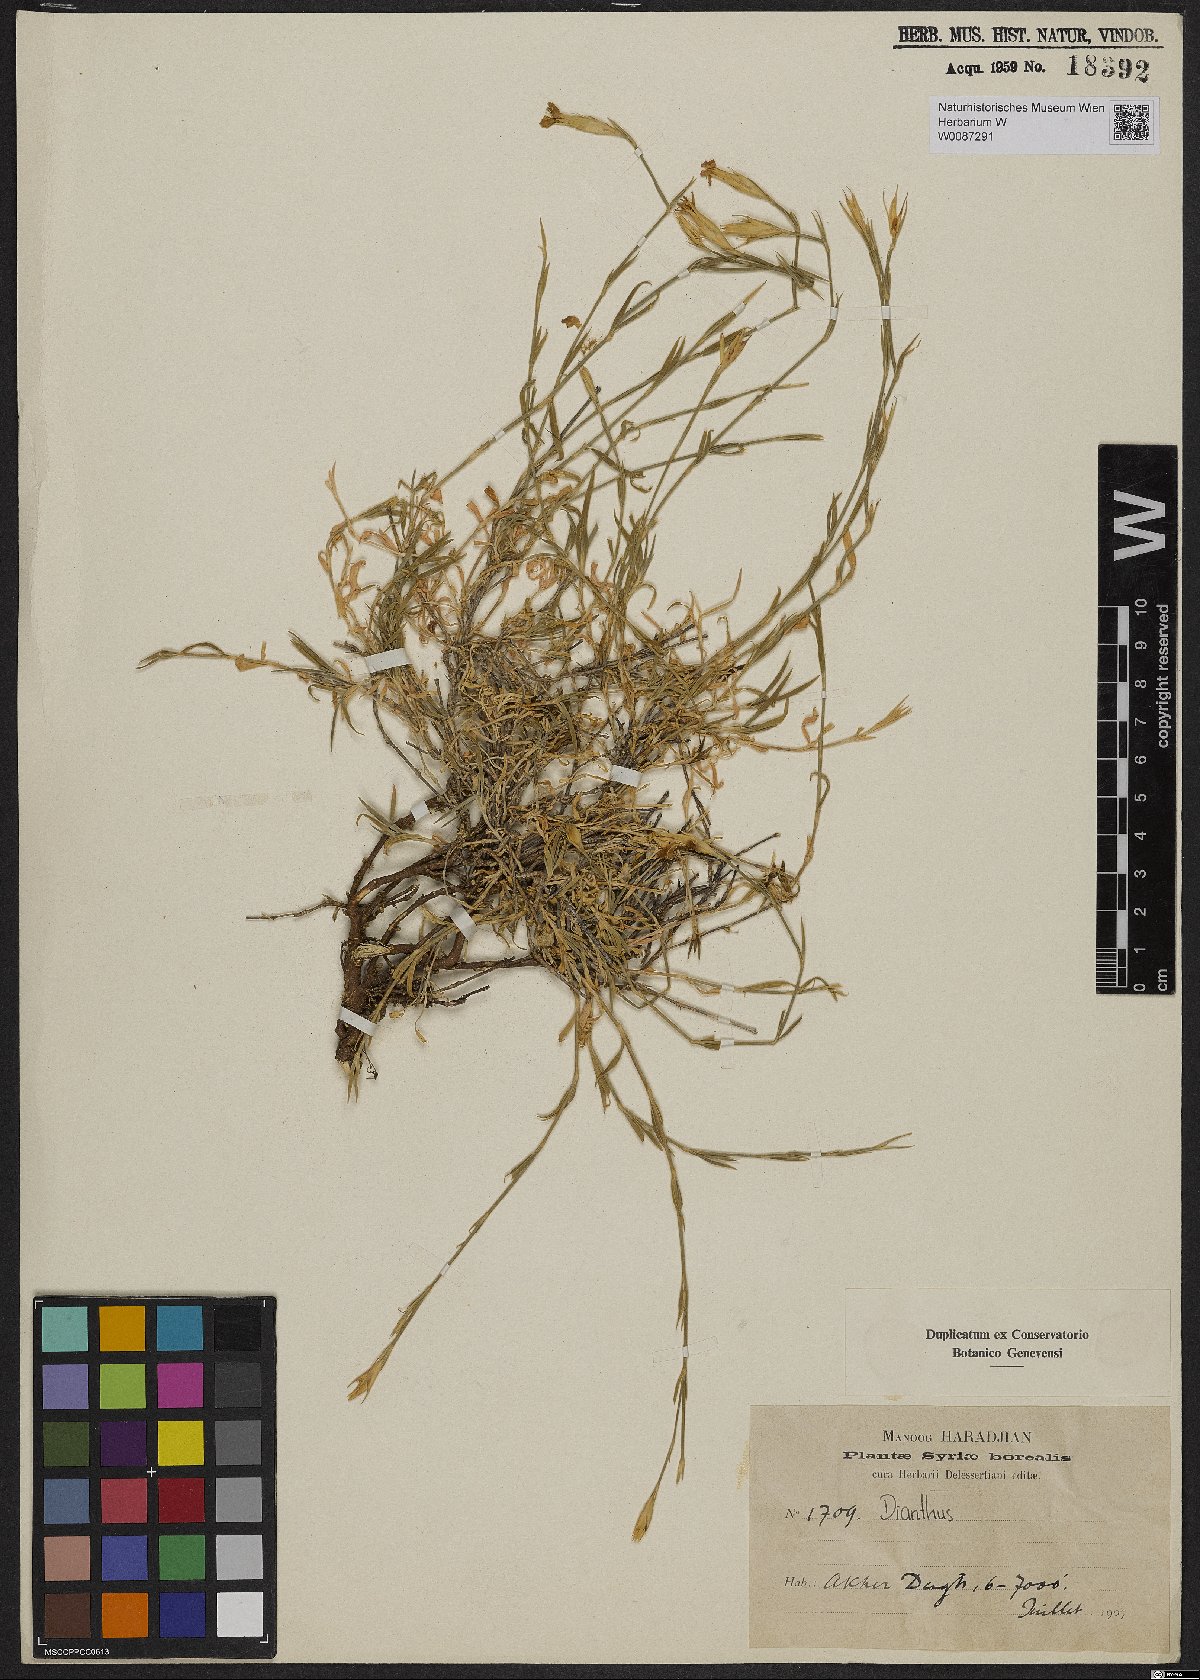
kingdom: Plantae
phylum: Tracheophyta
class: Magnoliopsida
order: Caryophyllales
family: Caryophyllaceae
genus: Dianthus
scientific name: Dianthus
